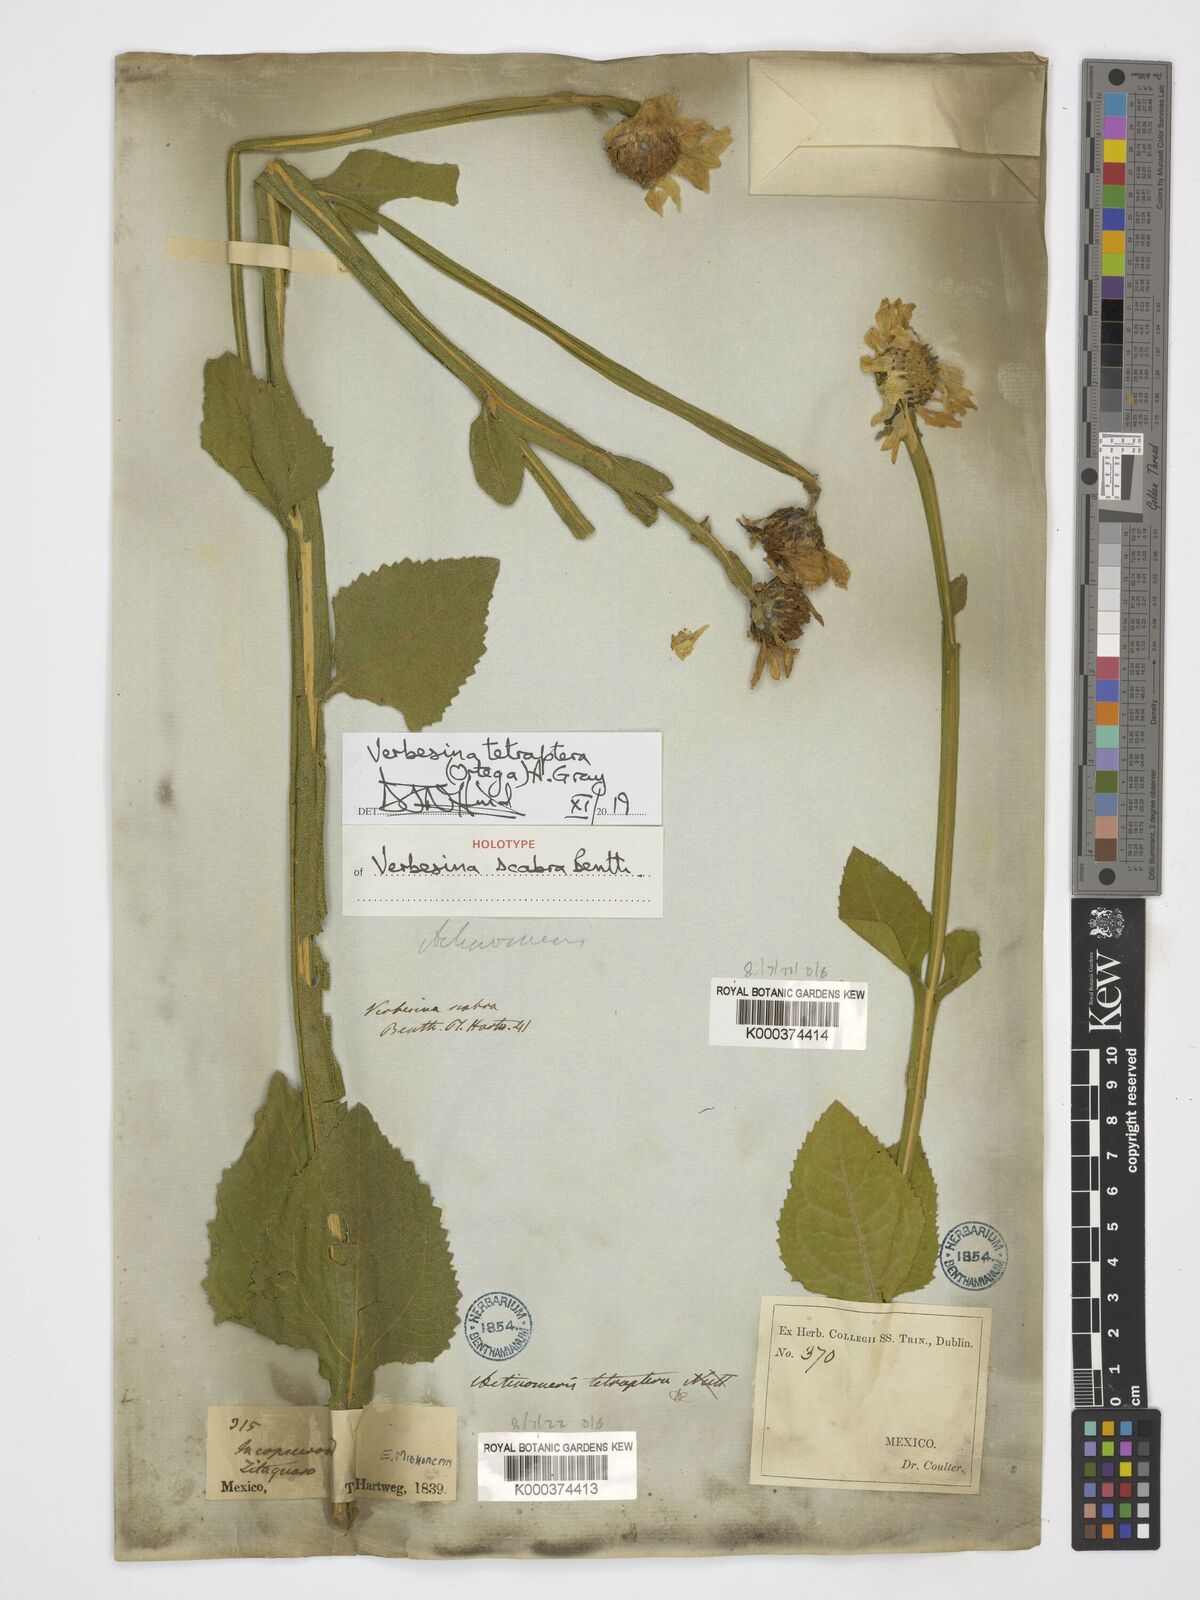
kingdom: Plantae
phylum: Tracheophyta
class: Magnoliopsida
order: Asterales
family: Asteraceae
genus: Verbesina
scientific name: Verbesina tetraptera
